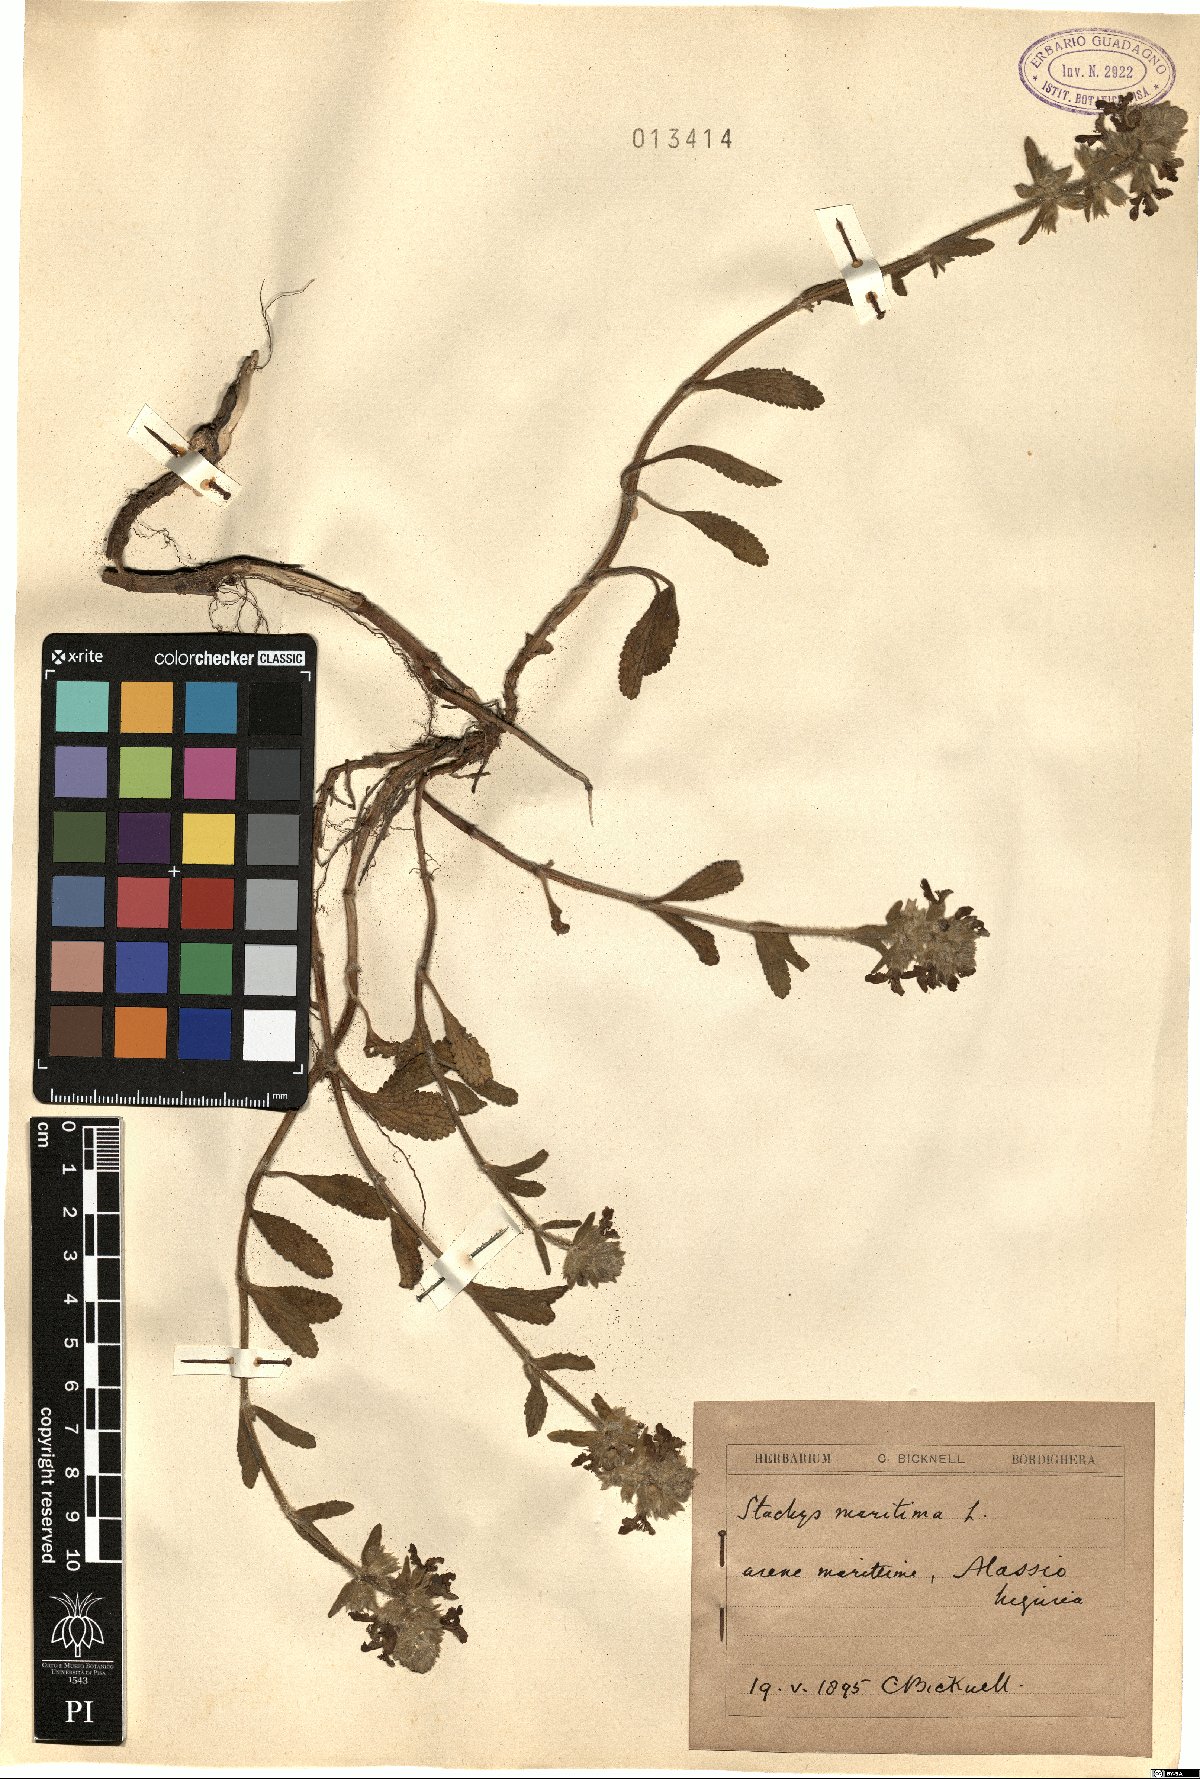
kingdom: Plantae
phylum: Tracheophyta
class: Magnoliopsida
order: Lamiales
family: Lamiaceae
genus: Stachys
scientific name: Stachys maritima
